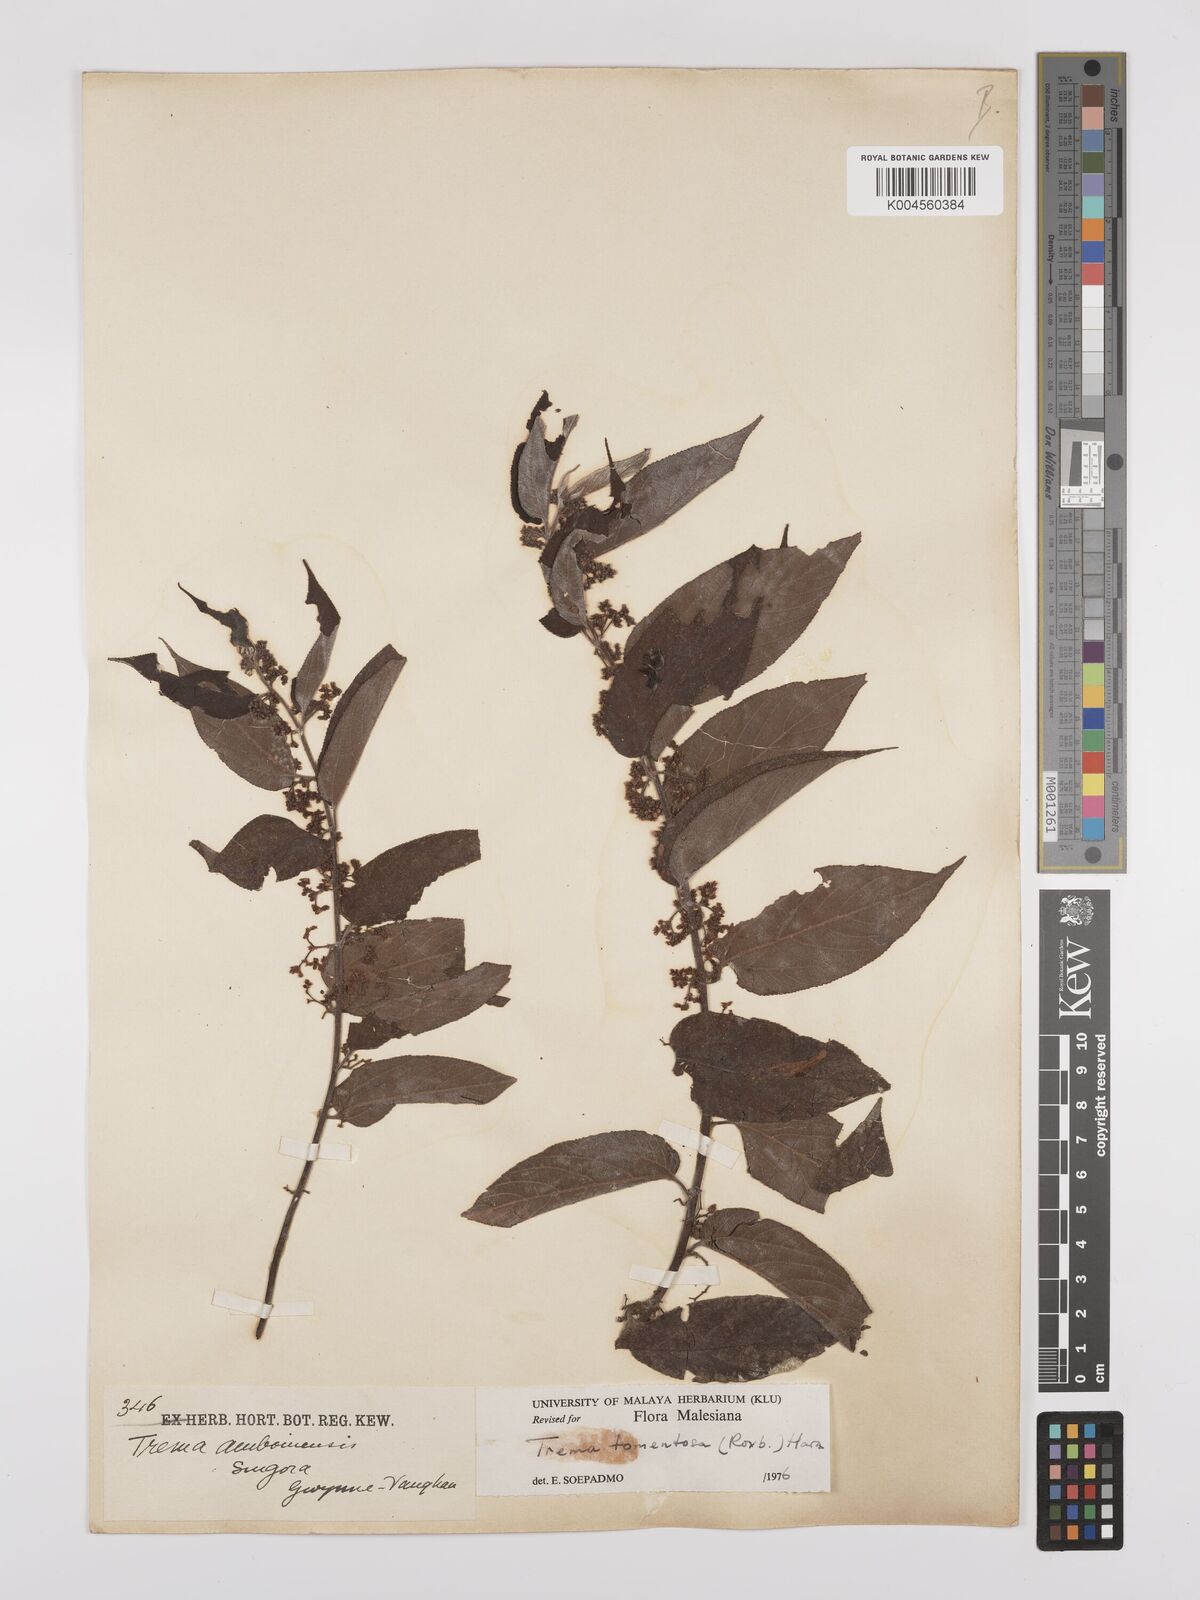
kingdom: Plantae
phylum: Tracheophyta
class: Magnoliopsida
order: Rosales
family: Cannabaceae
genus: Trema
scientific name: Trema tomentosum
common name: Peach-leaf-poisonbush
